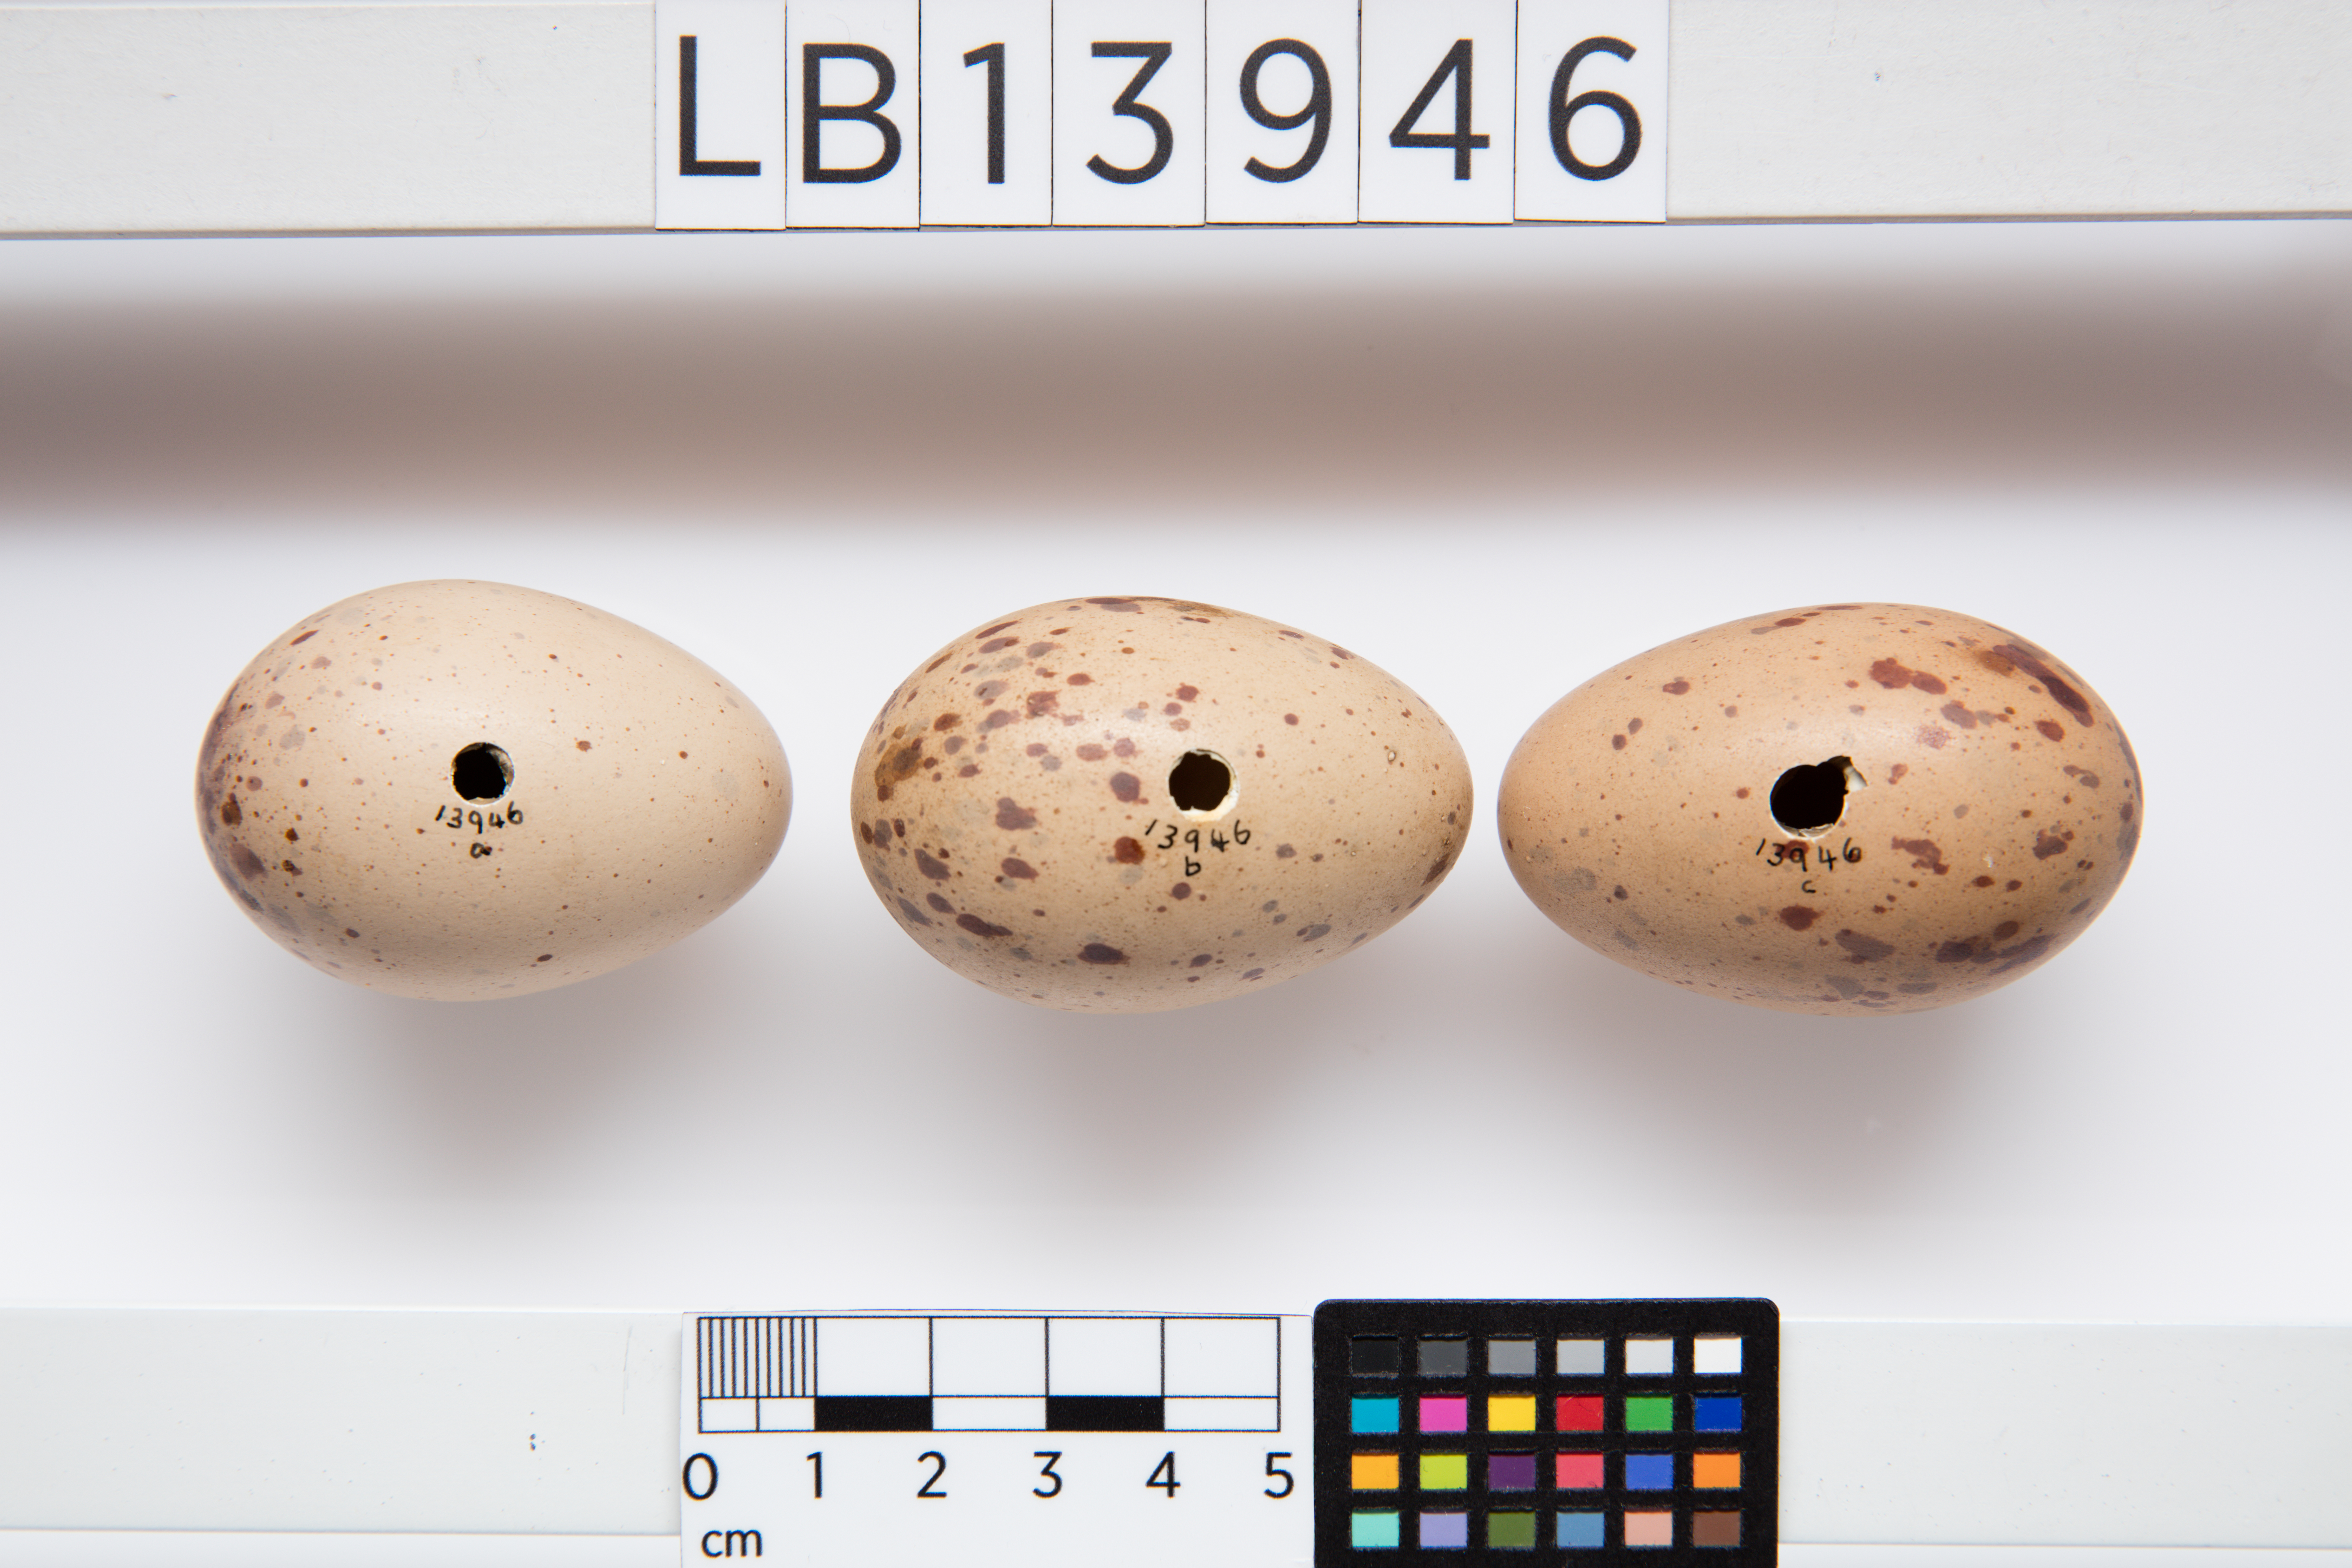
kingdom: Animalia
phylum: Chordata
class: Aves
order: Gruiformes
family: Rallidae
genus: Porphyrio
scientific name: Porphyrio melanotus
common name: Australasian swamphen
